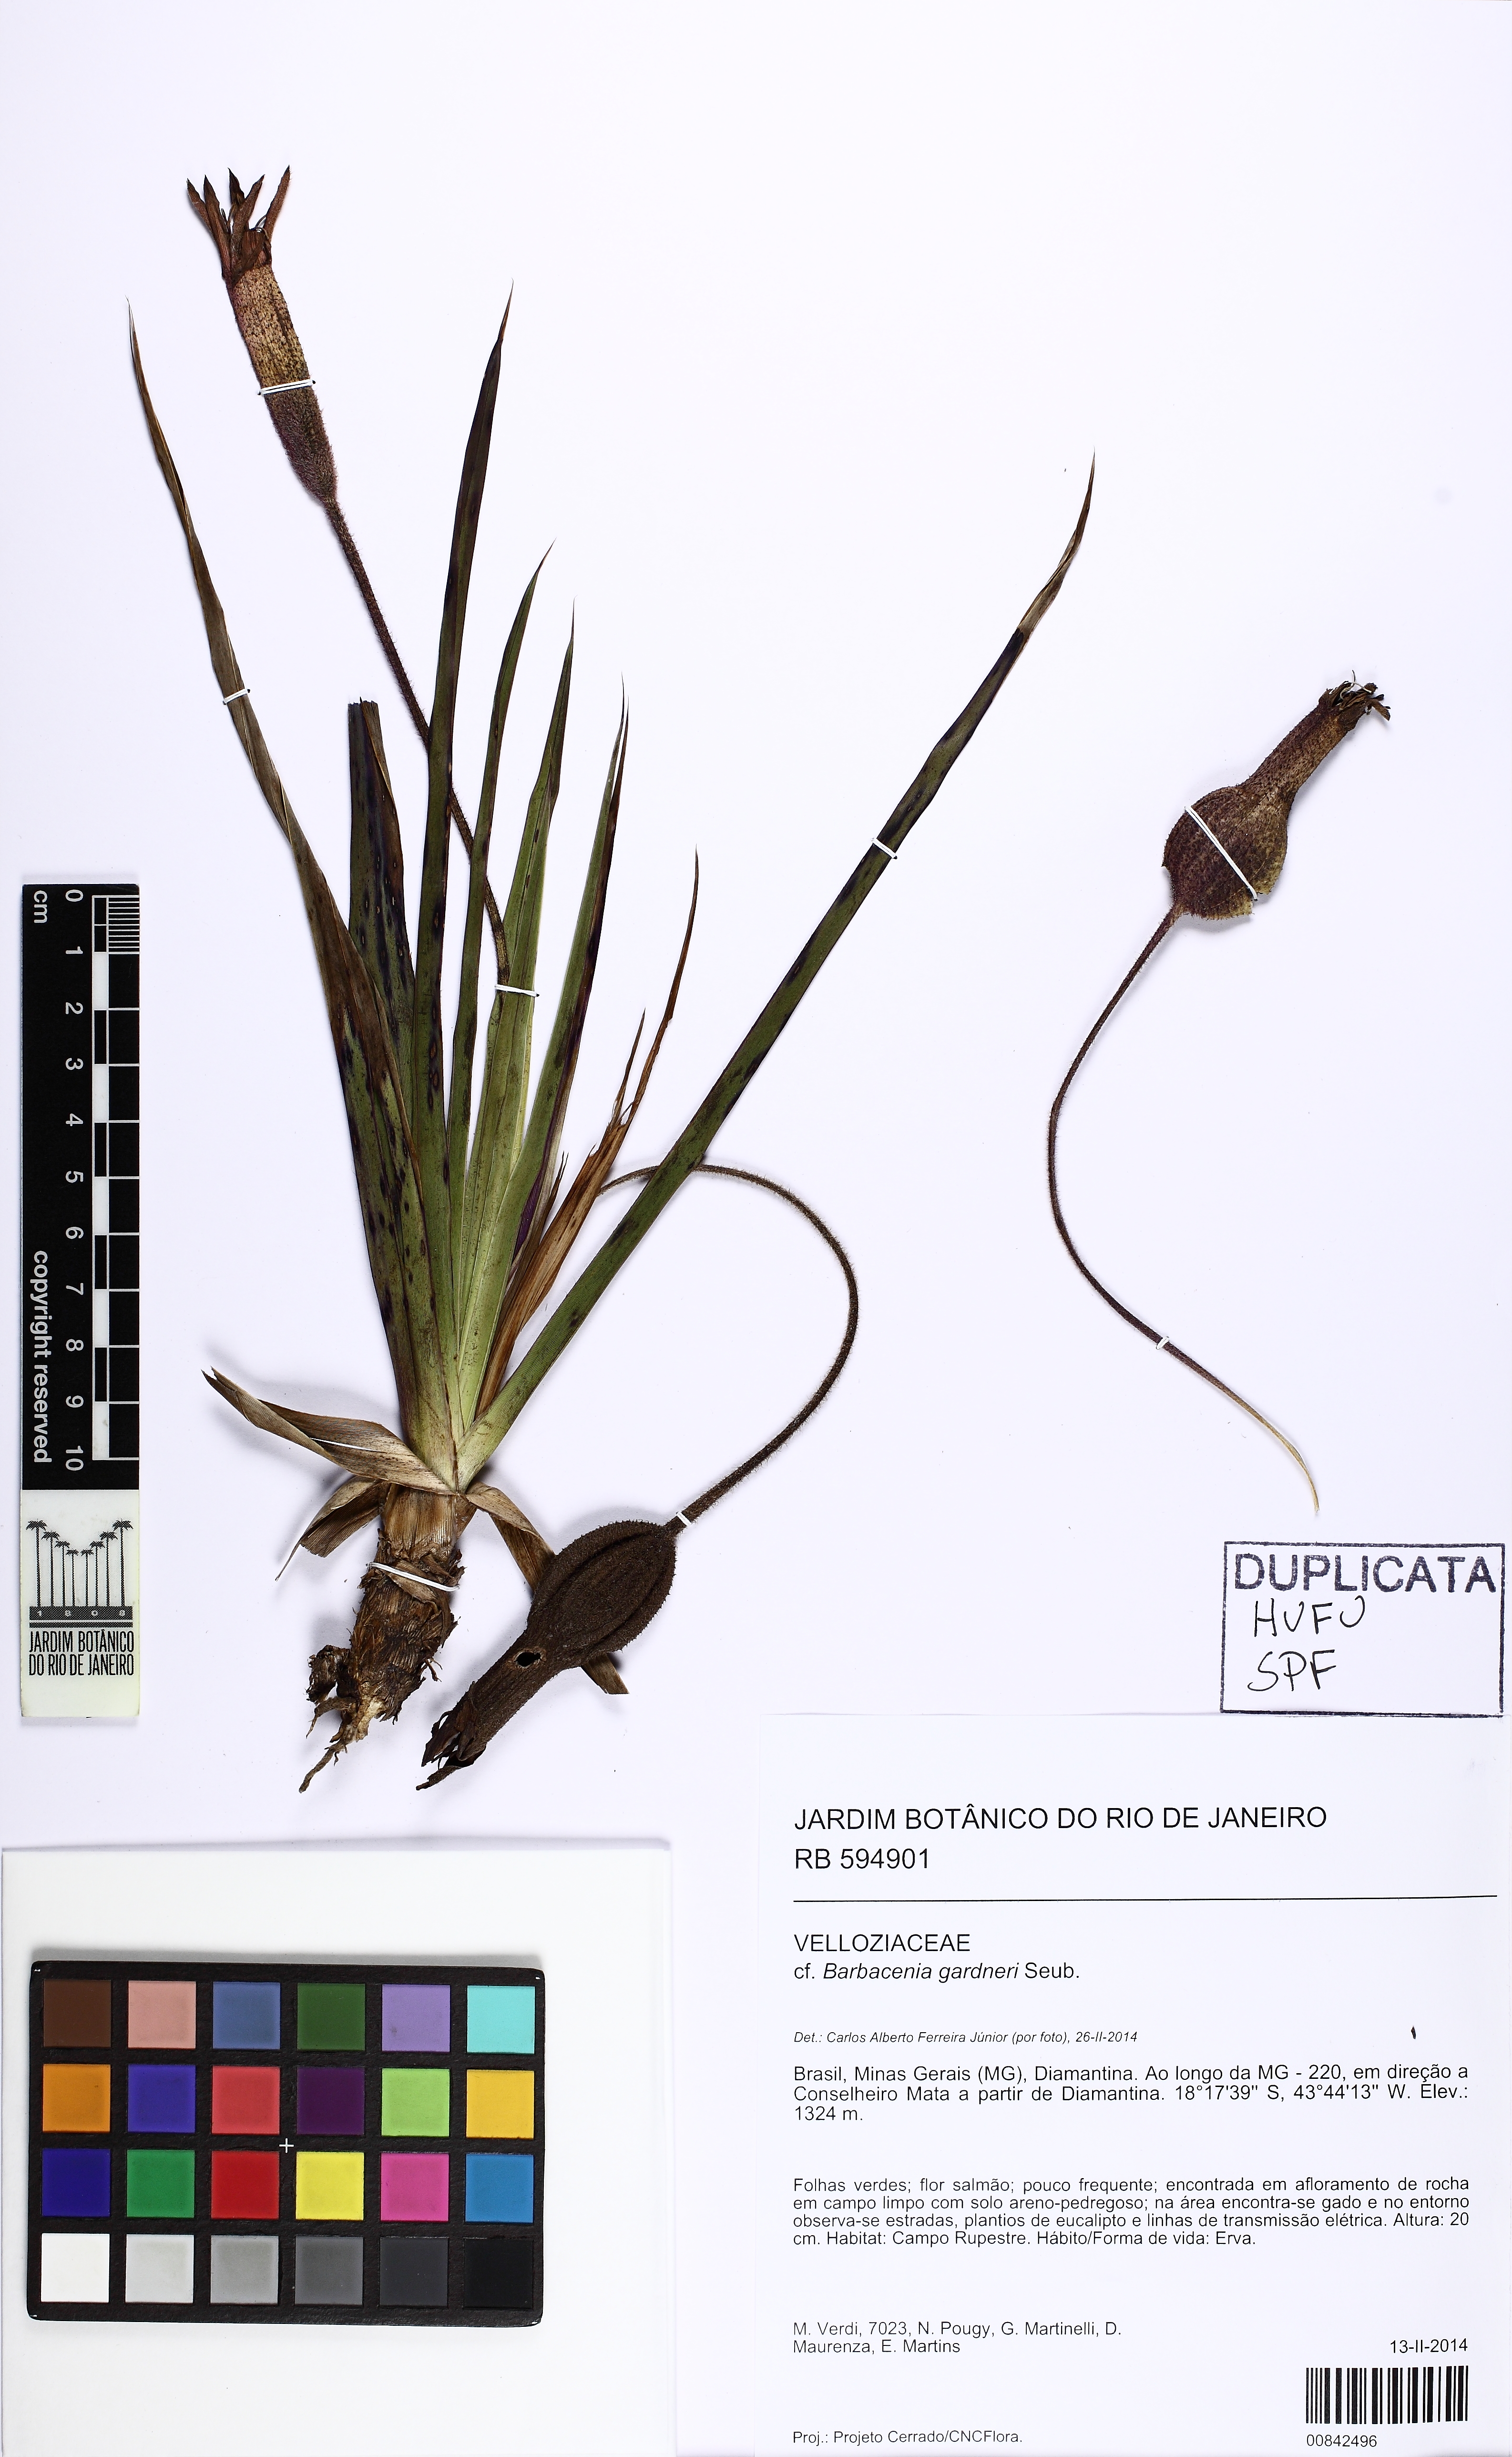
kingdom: Plantae
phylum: Tracheophyta
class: Liliopsida
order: Pandanales
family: Velloziaceae
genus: Barbacenia
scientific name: Barbacenia filamentifera
